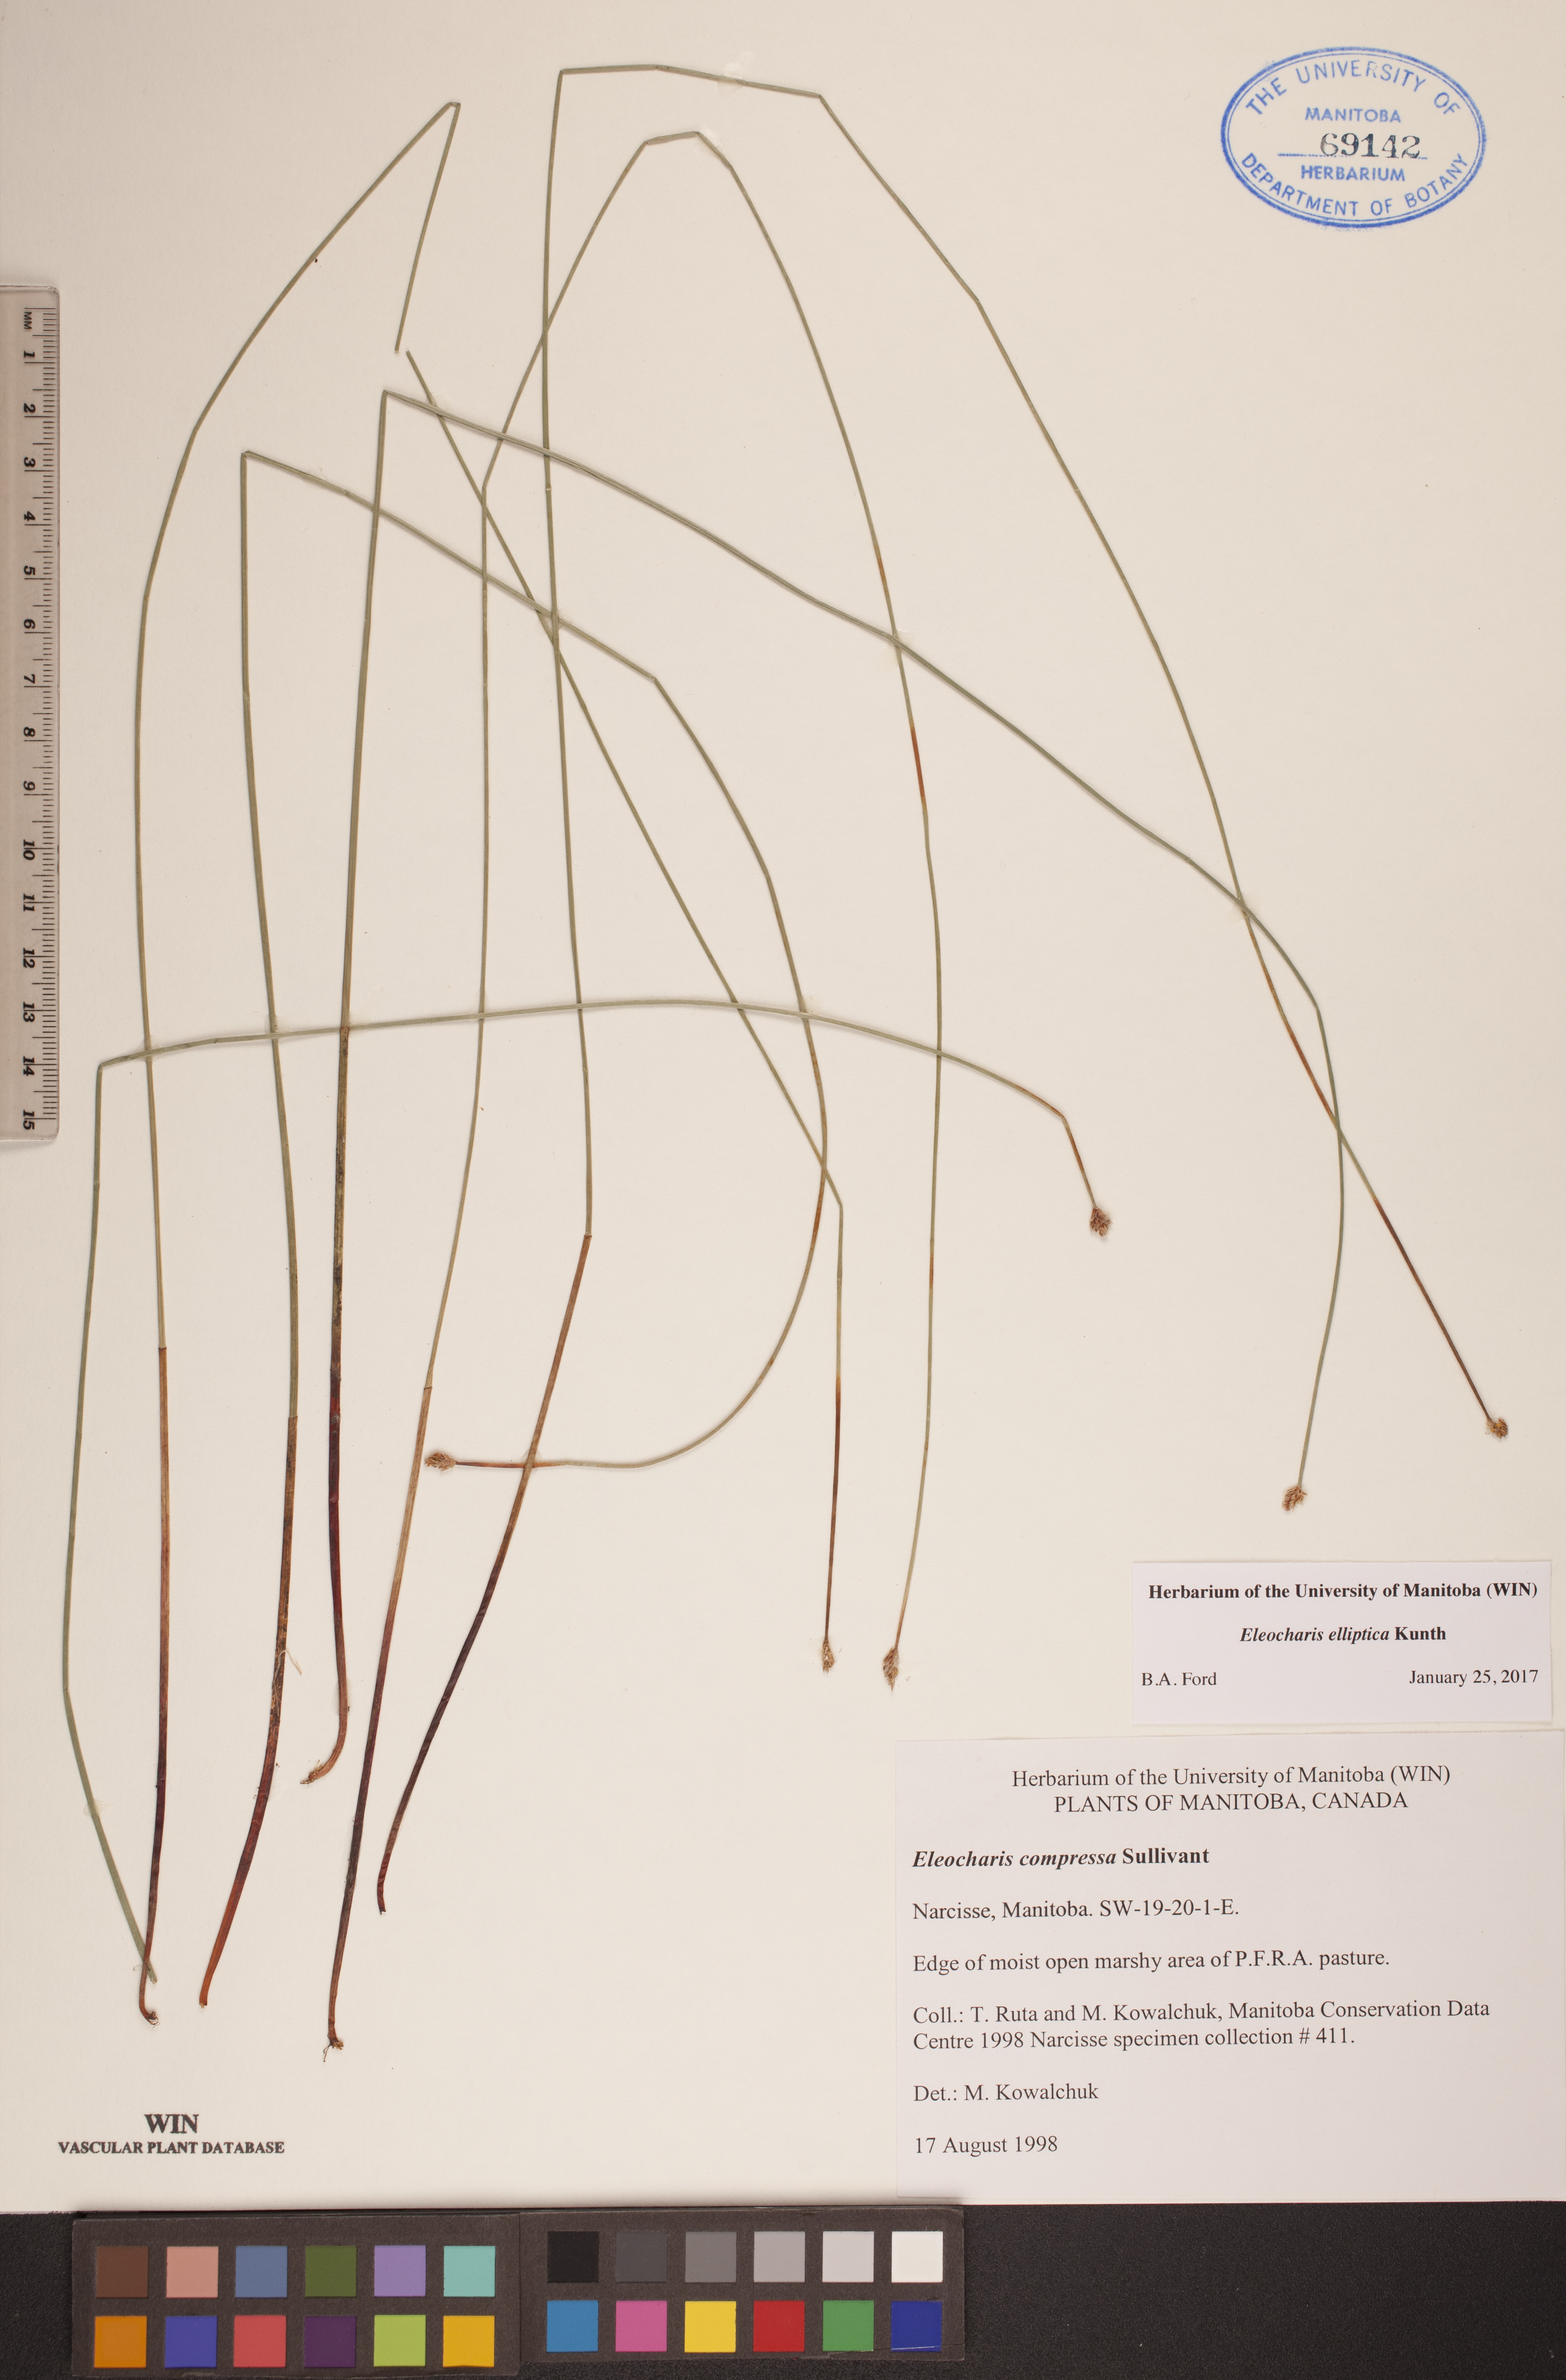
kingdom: Plantae
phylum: Tracheophyta
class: Liliopsida
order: Poales
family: Cyperaceae
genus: Eleocharis
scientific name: Eleocharis elliptica
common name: Capitate spikerush
